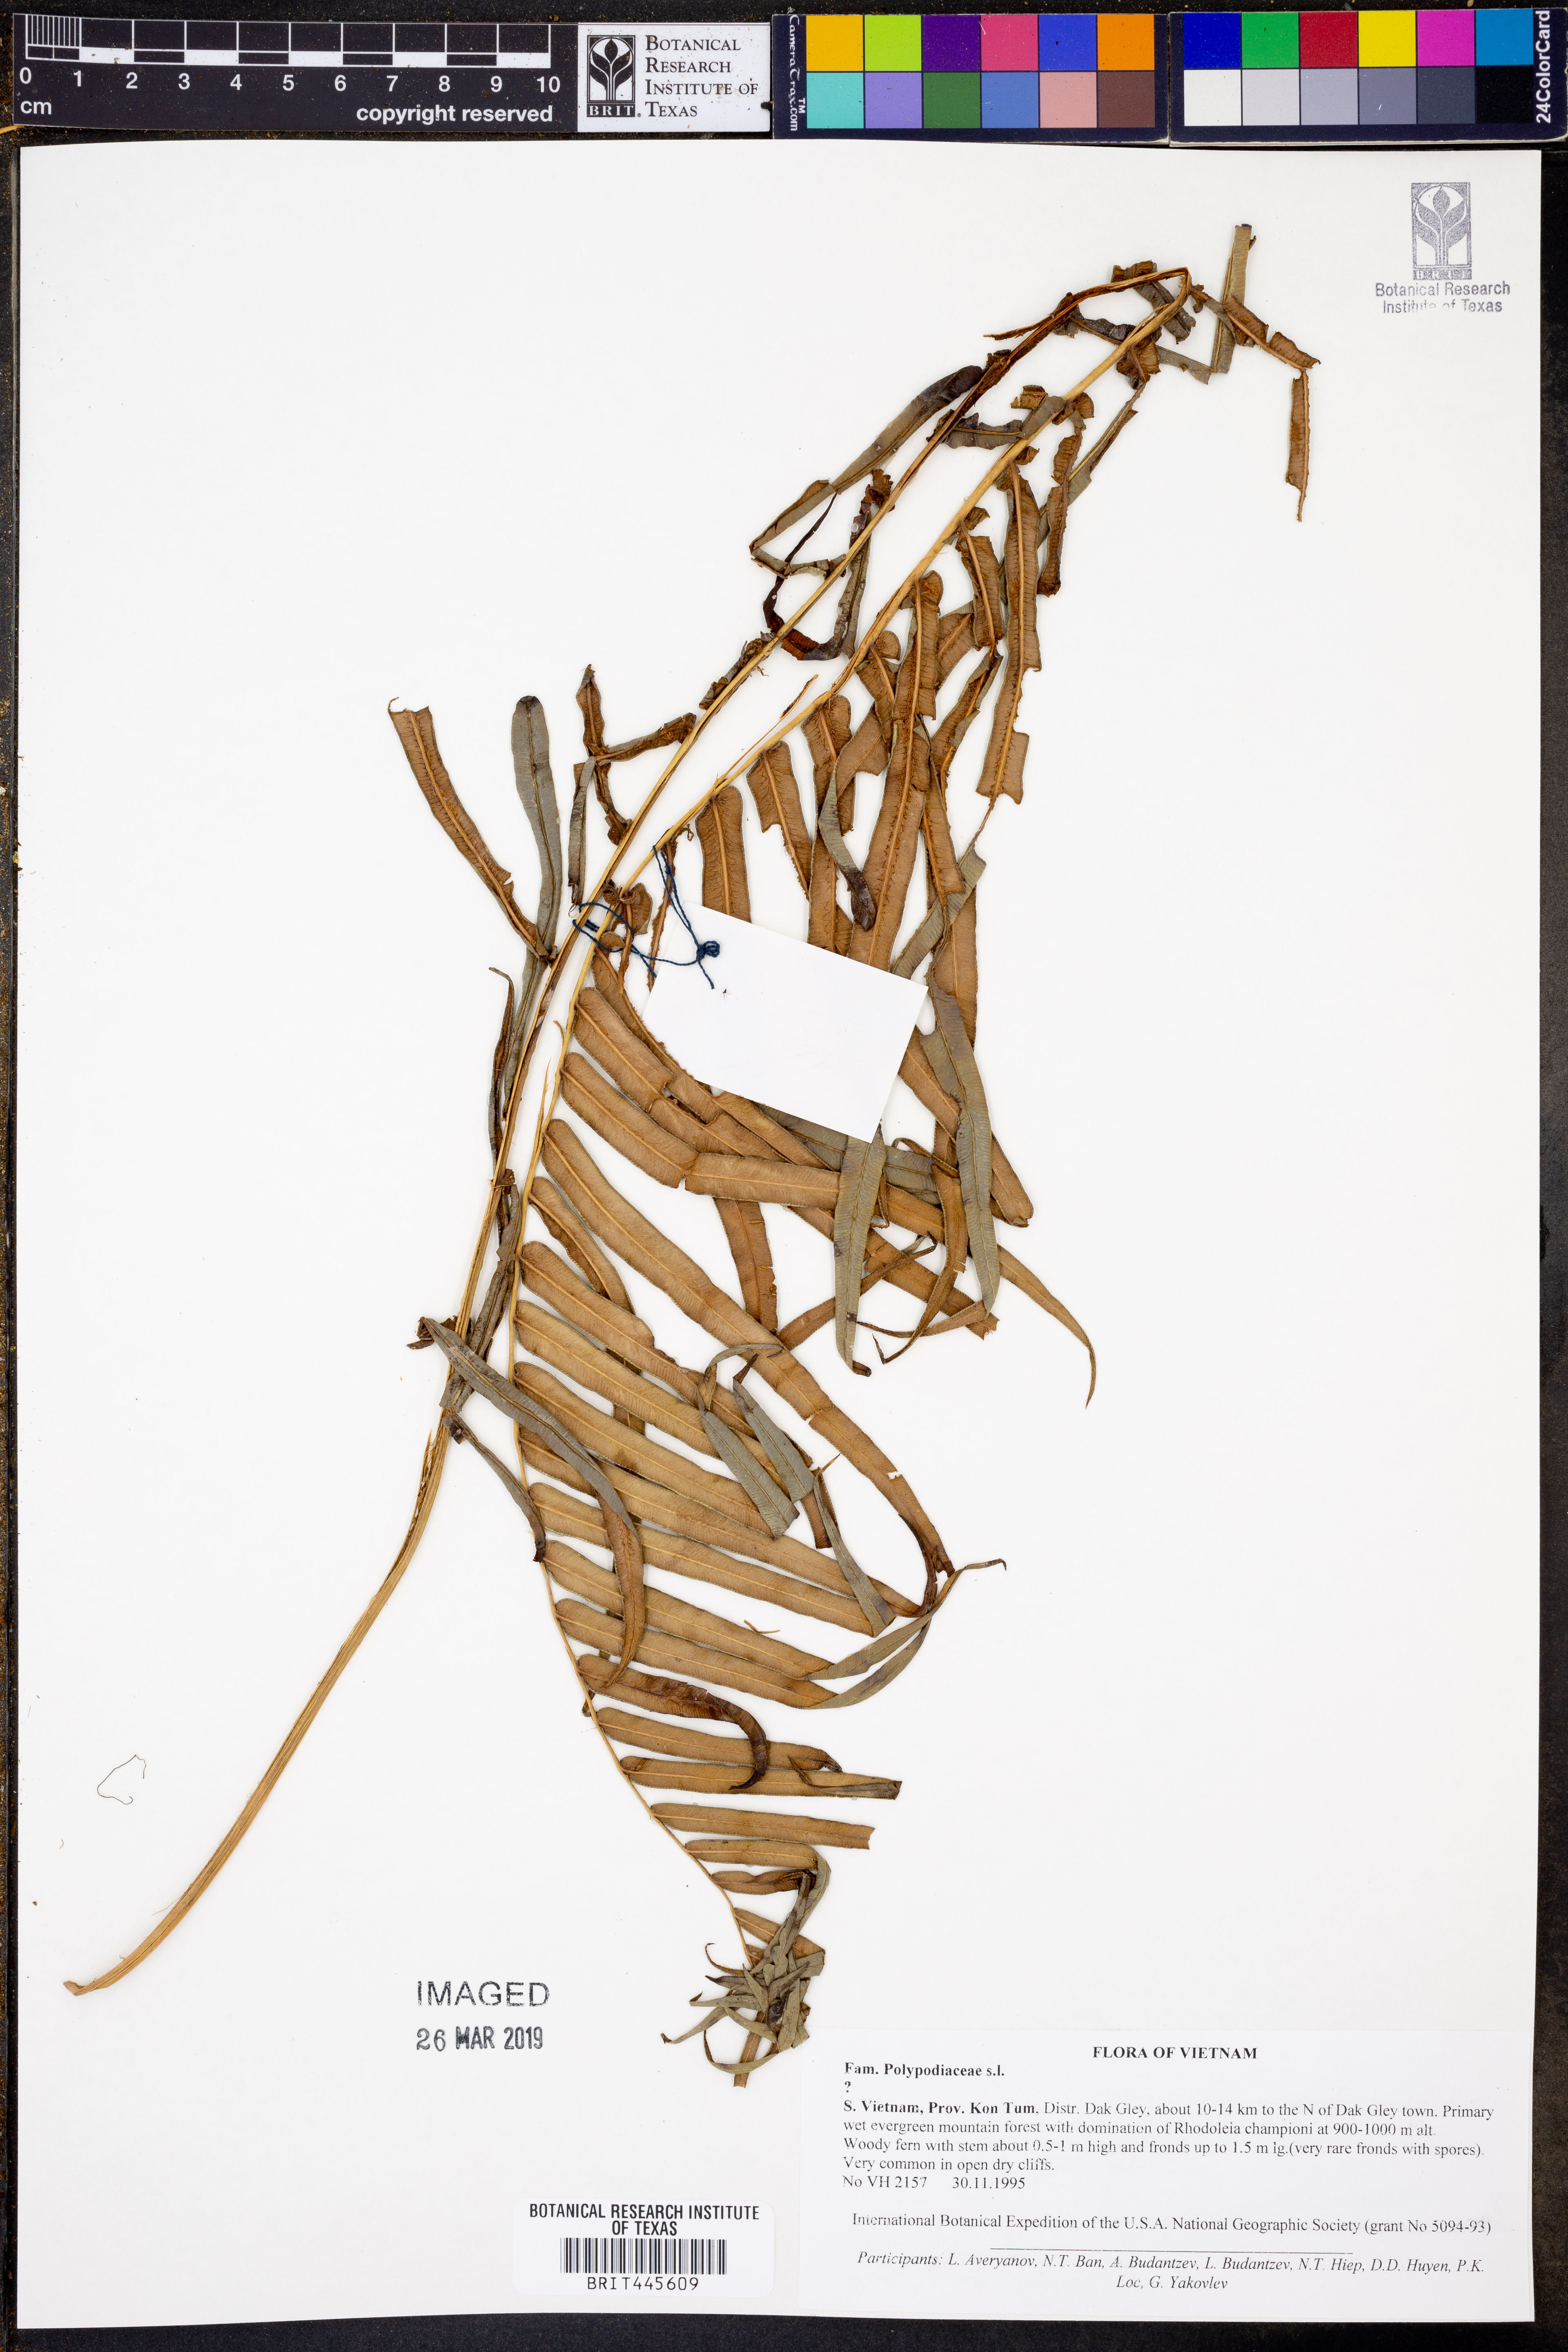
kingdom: Plantae
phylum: Tracheophyta
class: Polypodiopsida
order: Polypodiales
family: Polypodiaceae
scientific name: Polypodiaceae
